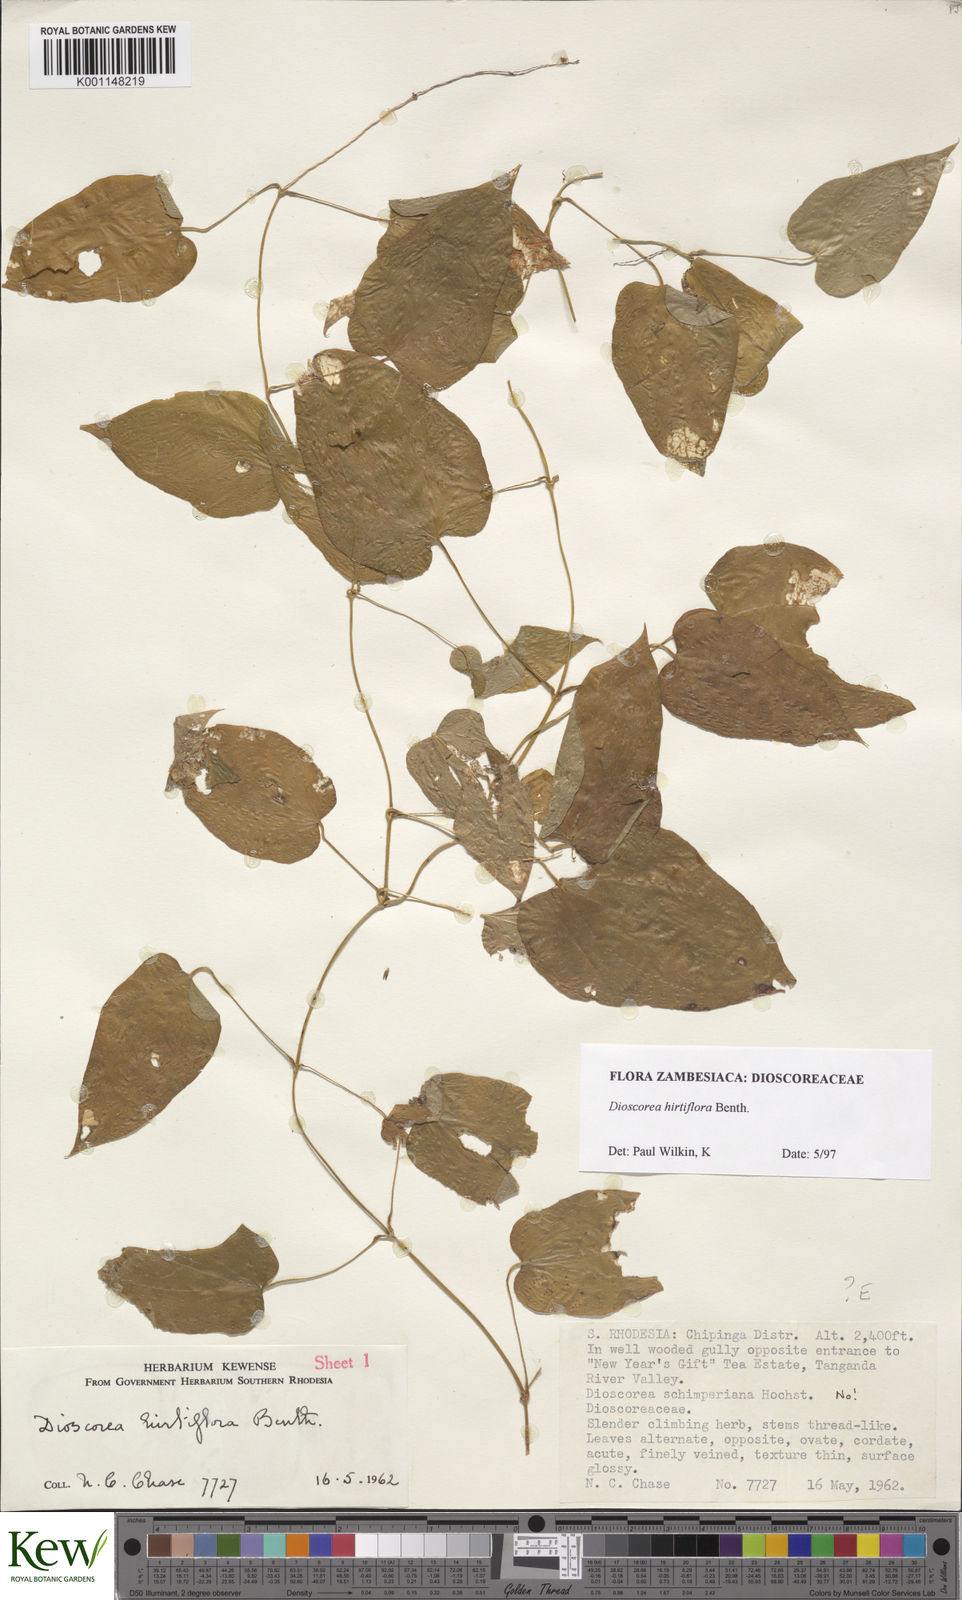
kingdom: Plantae
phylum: Tracheophyta
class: Liliopsida
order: Dioscoreales
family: Dioscoreaceae
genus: Dioscorea
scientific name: Dioscorea hirtiflora
